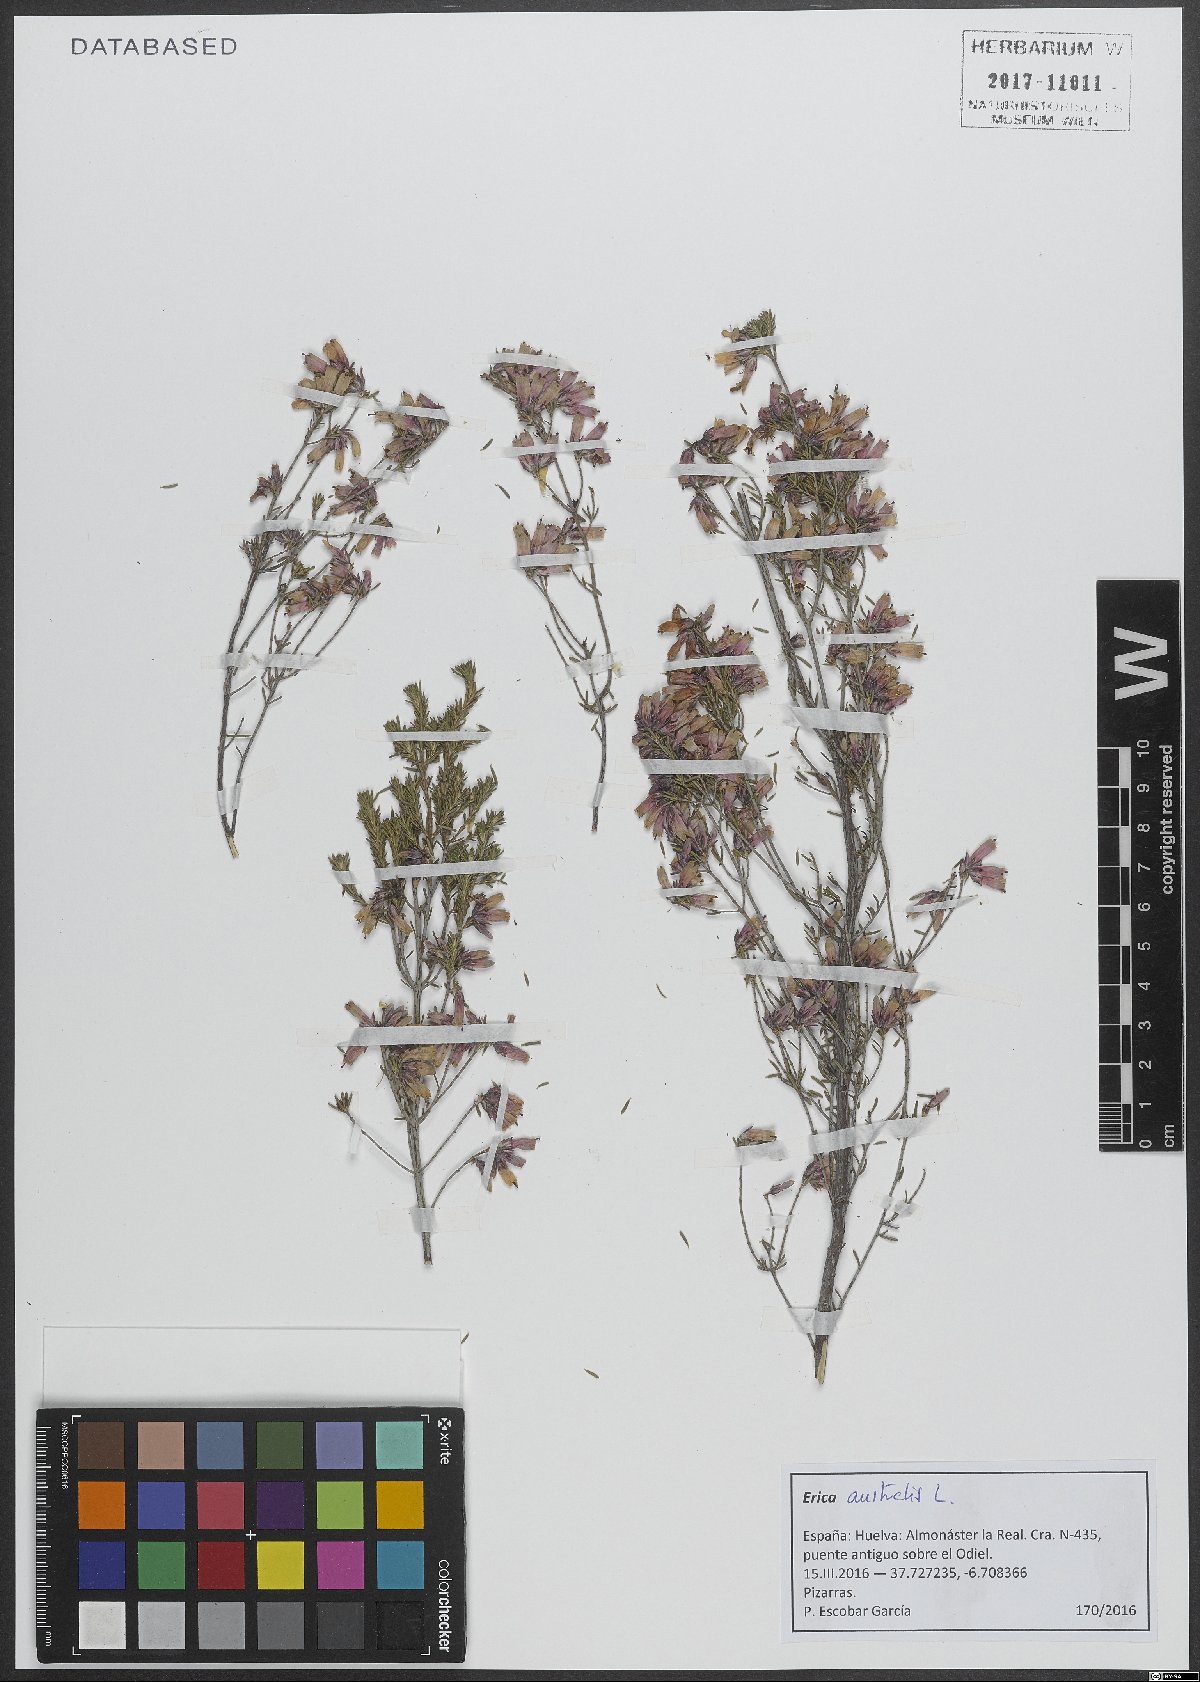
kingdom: Plantae
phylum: Tracheophyta
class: Magnoliopsida
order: Ericales
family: Ericaceae
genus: Erica
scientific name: Erica australis
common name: Spanish heath
